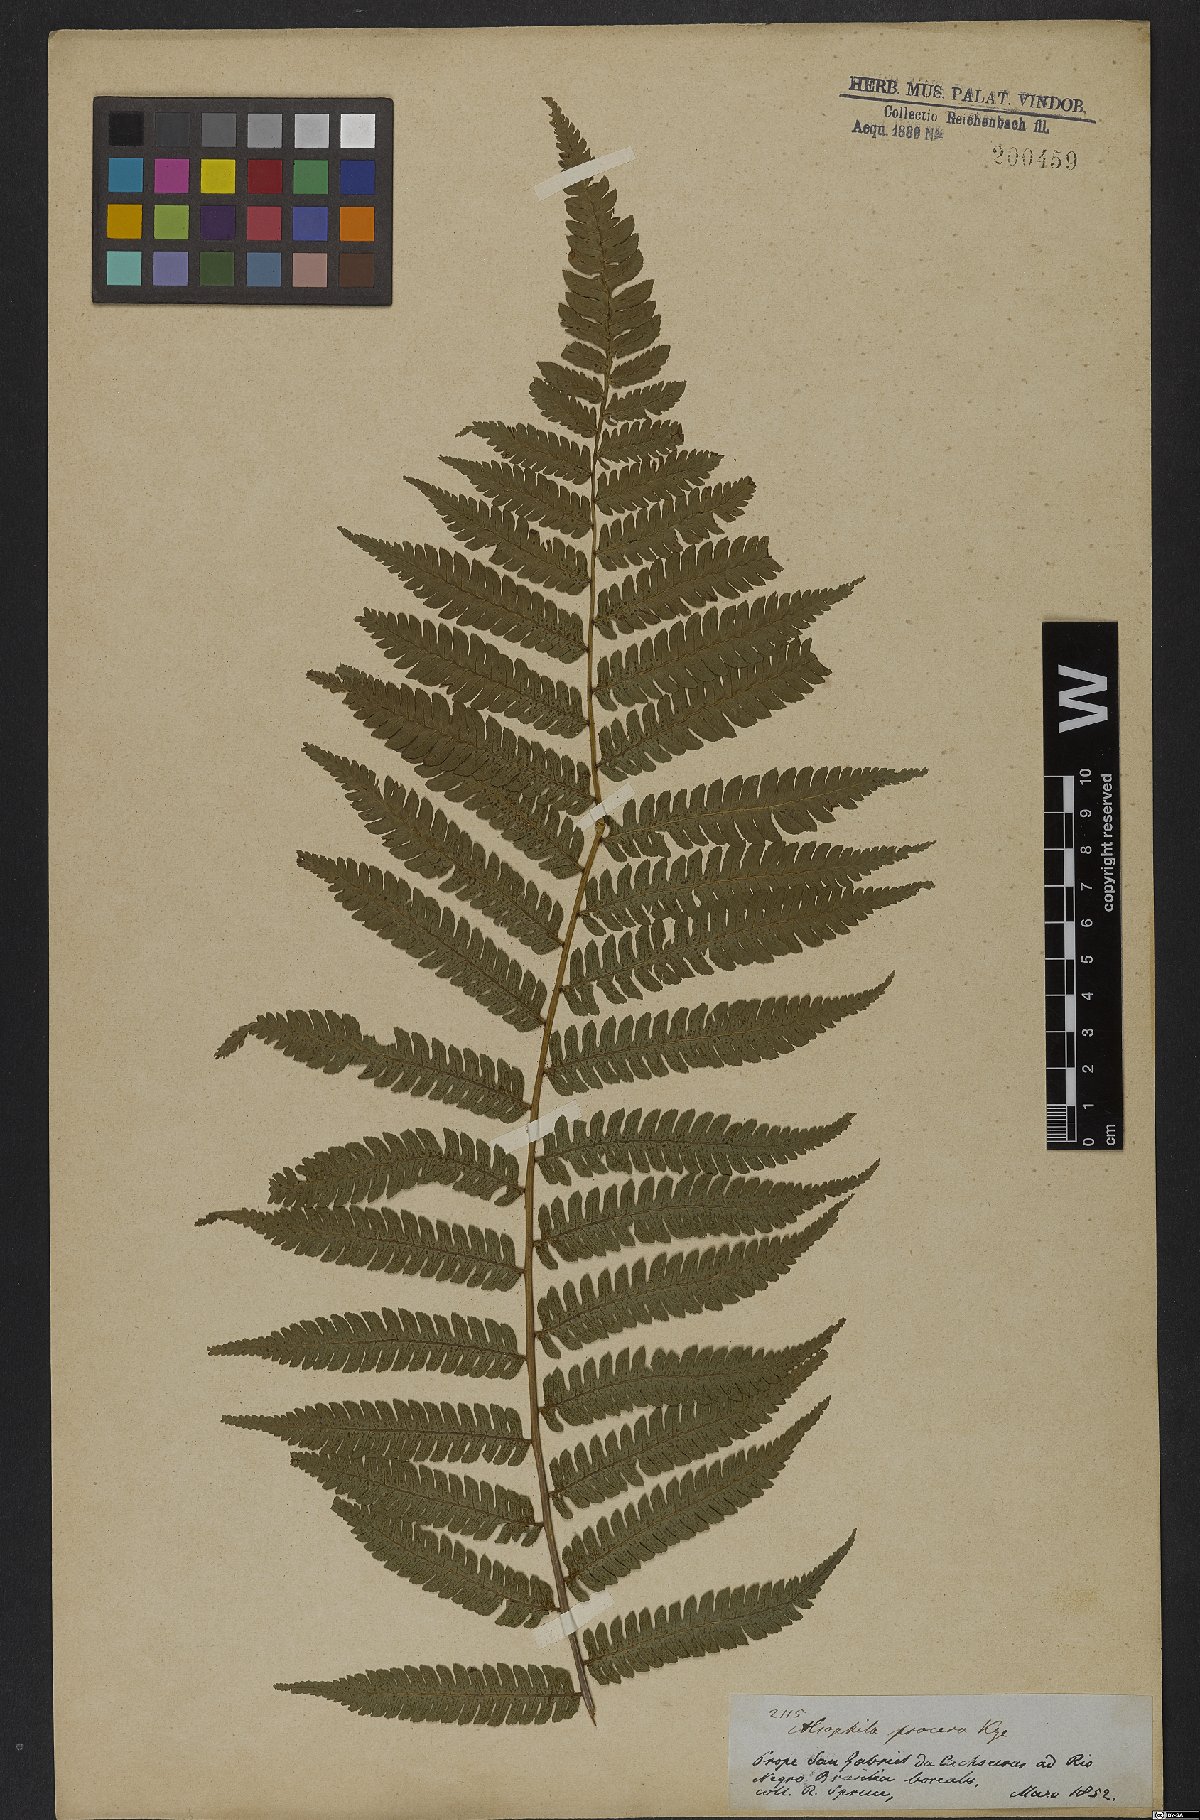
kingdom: Plantae
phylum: Tracheophyta
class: Polypodiopsida
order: Cyatheales
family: Cyatheaceae
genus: Cyathea
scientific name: Cyathea pungens
